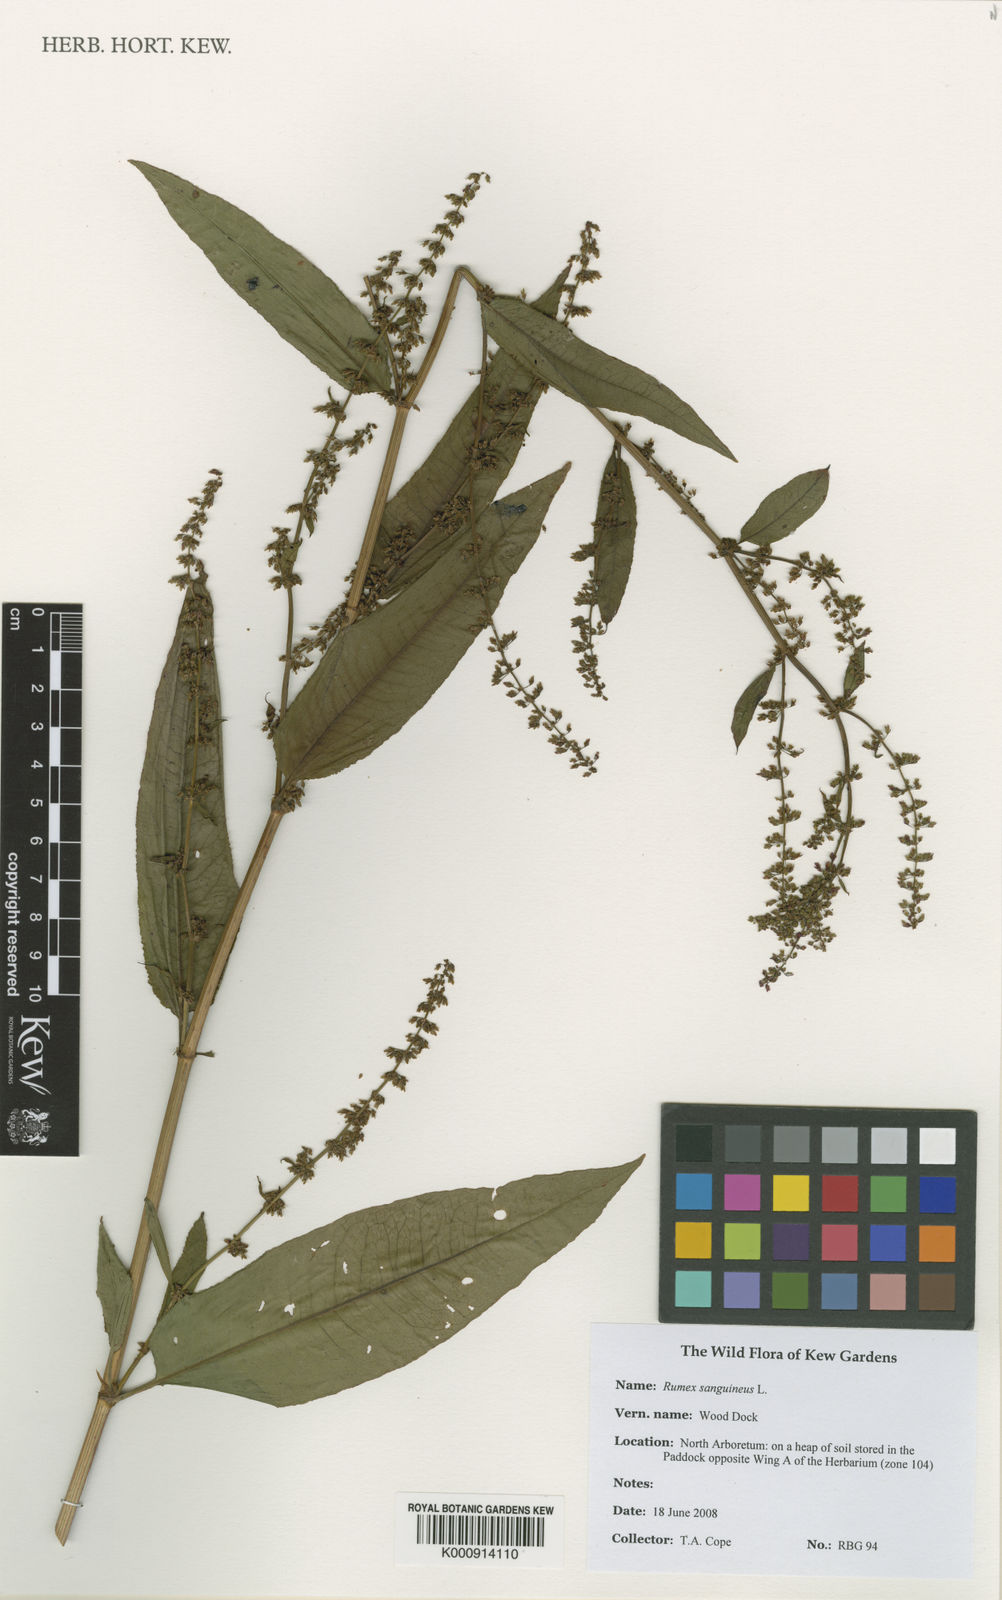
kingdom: Plantae
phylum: Tracheophyta
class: Magnoliopsida
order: Caryophyllales
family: Polygonaceae
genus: Rumex
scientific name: Rumex sanguineus
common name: Wood dock
